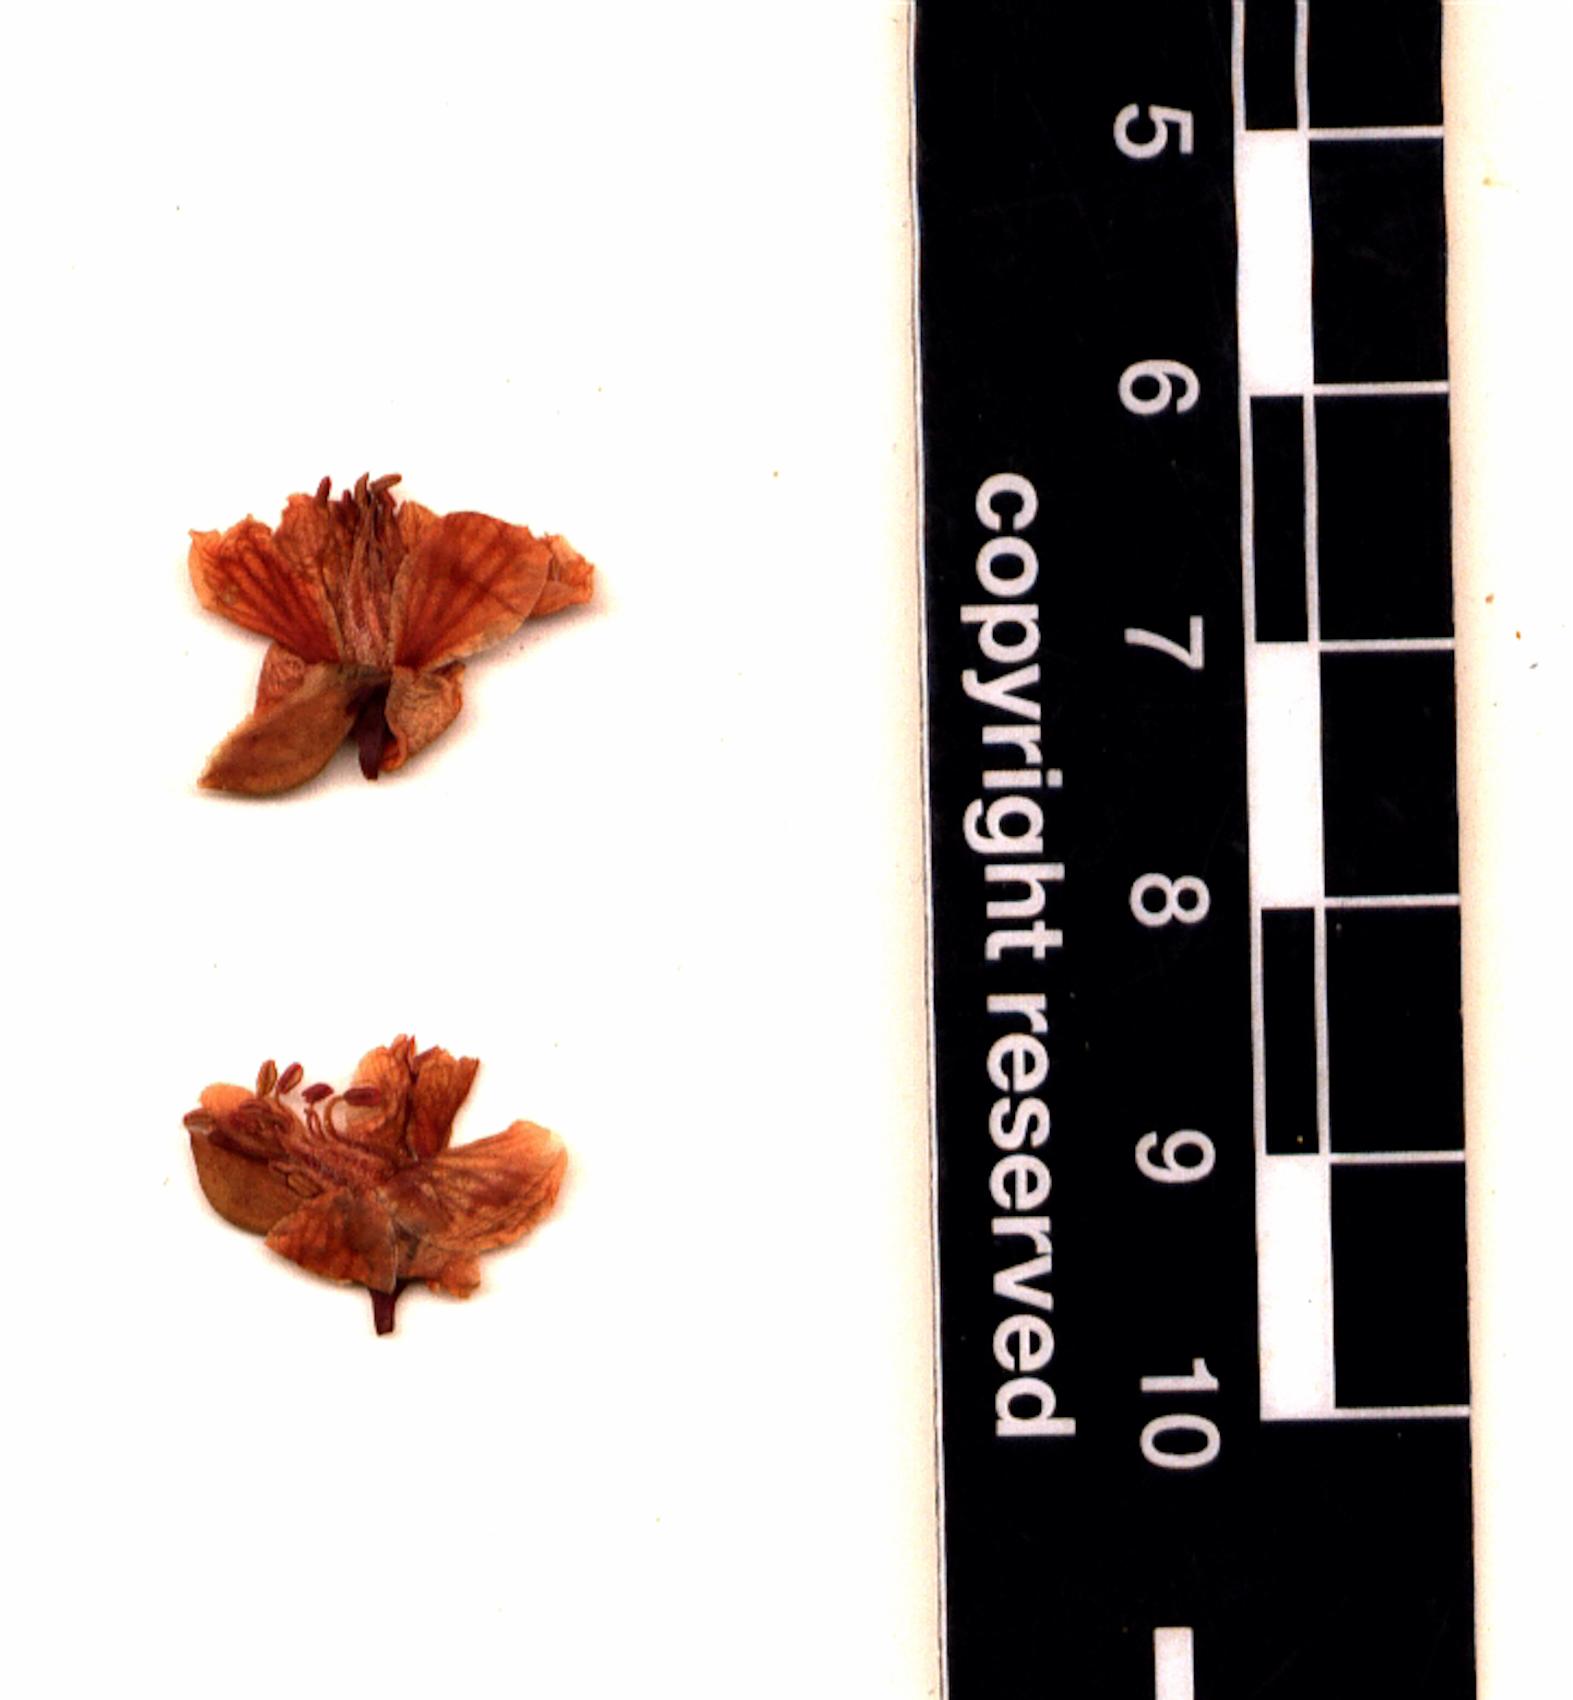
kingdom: Plantae
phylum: Tracheophyta
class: Magnoliopsida
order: Fabales
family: Fabaceae
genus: Caesalpinia
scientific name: Caesalpinia
